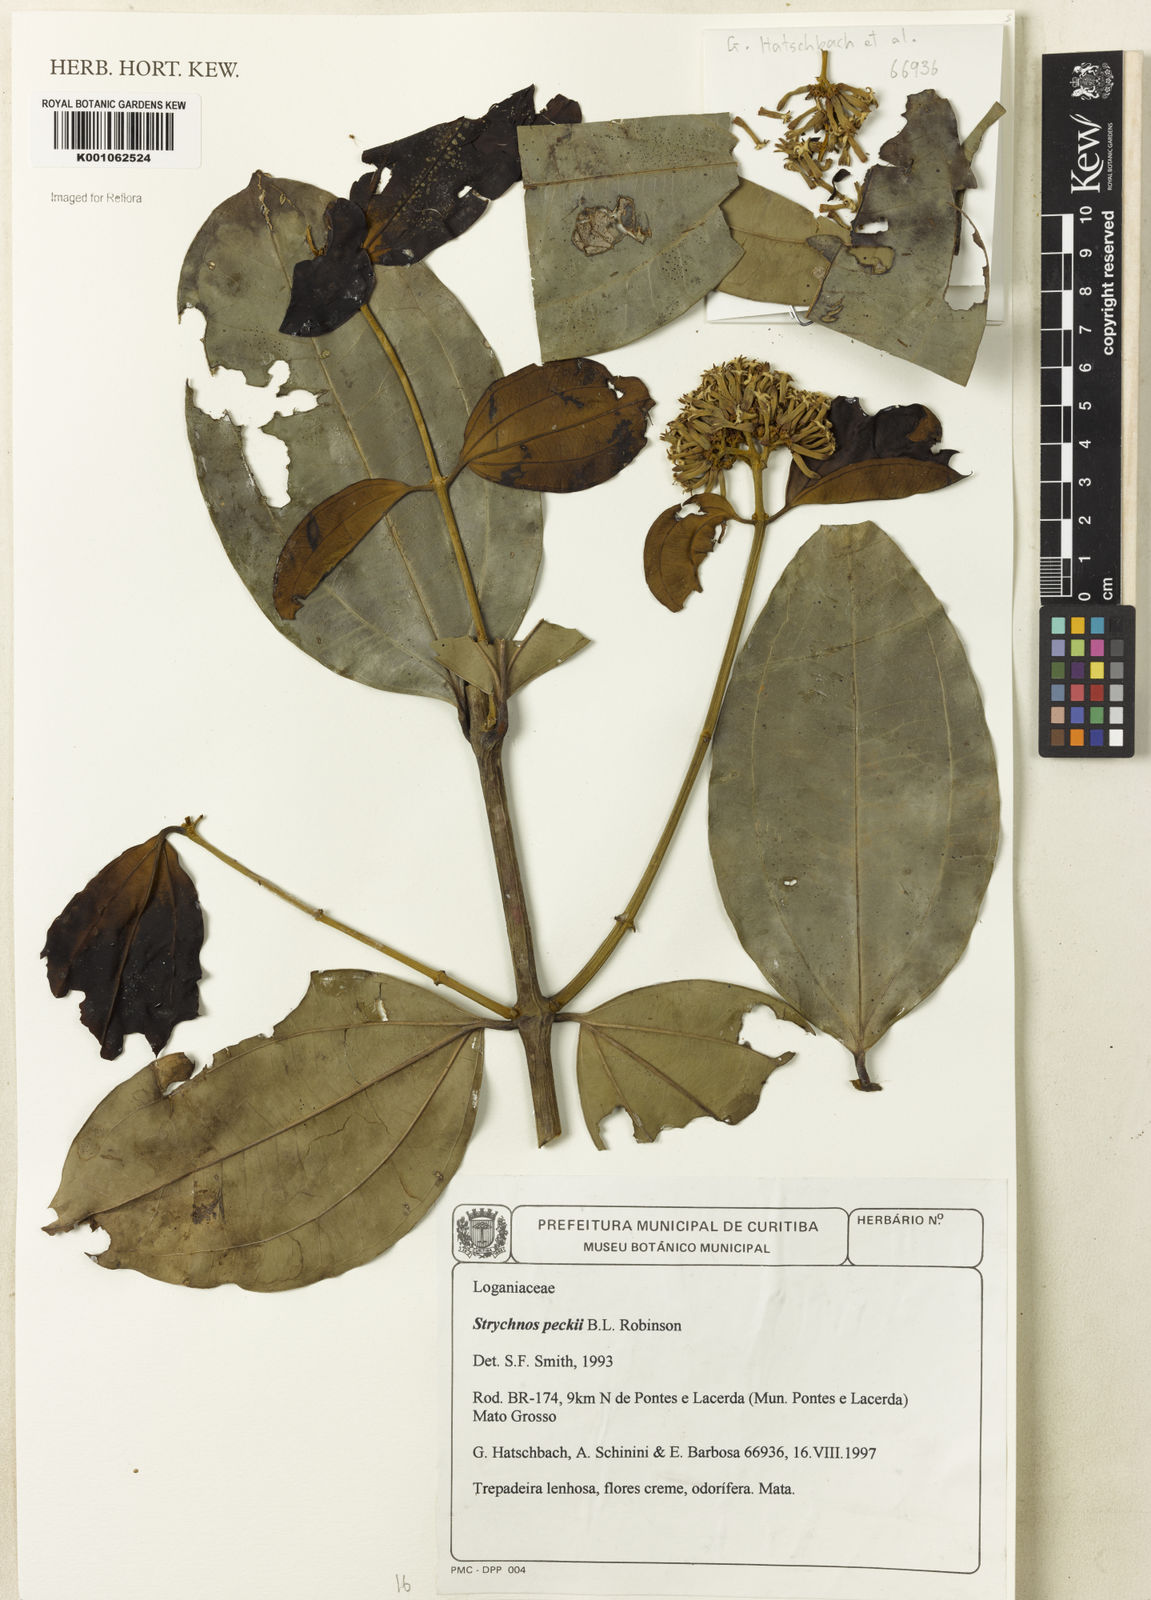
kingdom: Plantae
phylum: Tracheophyta
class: Magnoliopsida
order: Gentianales
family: Loganiaceae
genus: Strychnos
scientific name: Strychnos peckii
